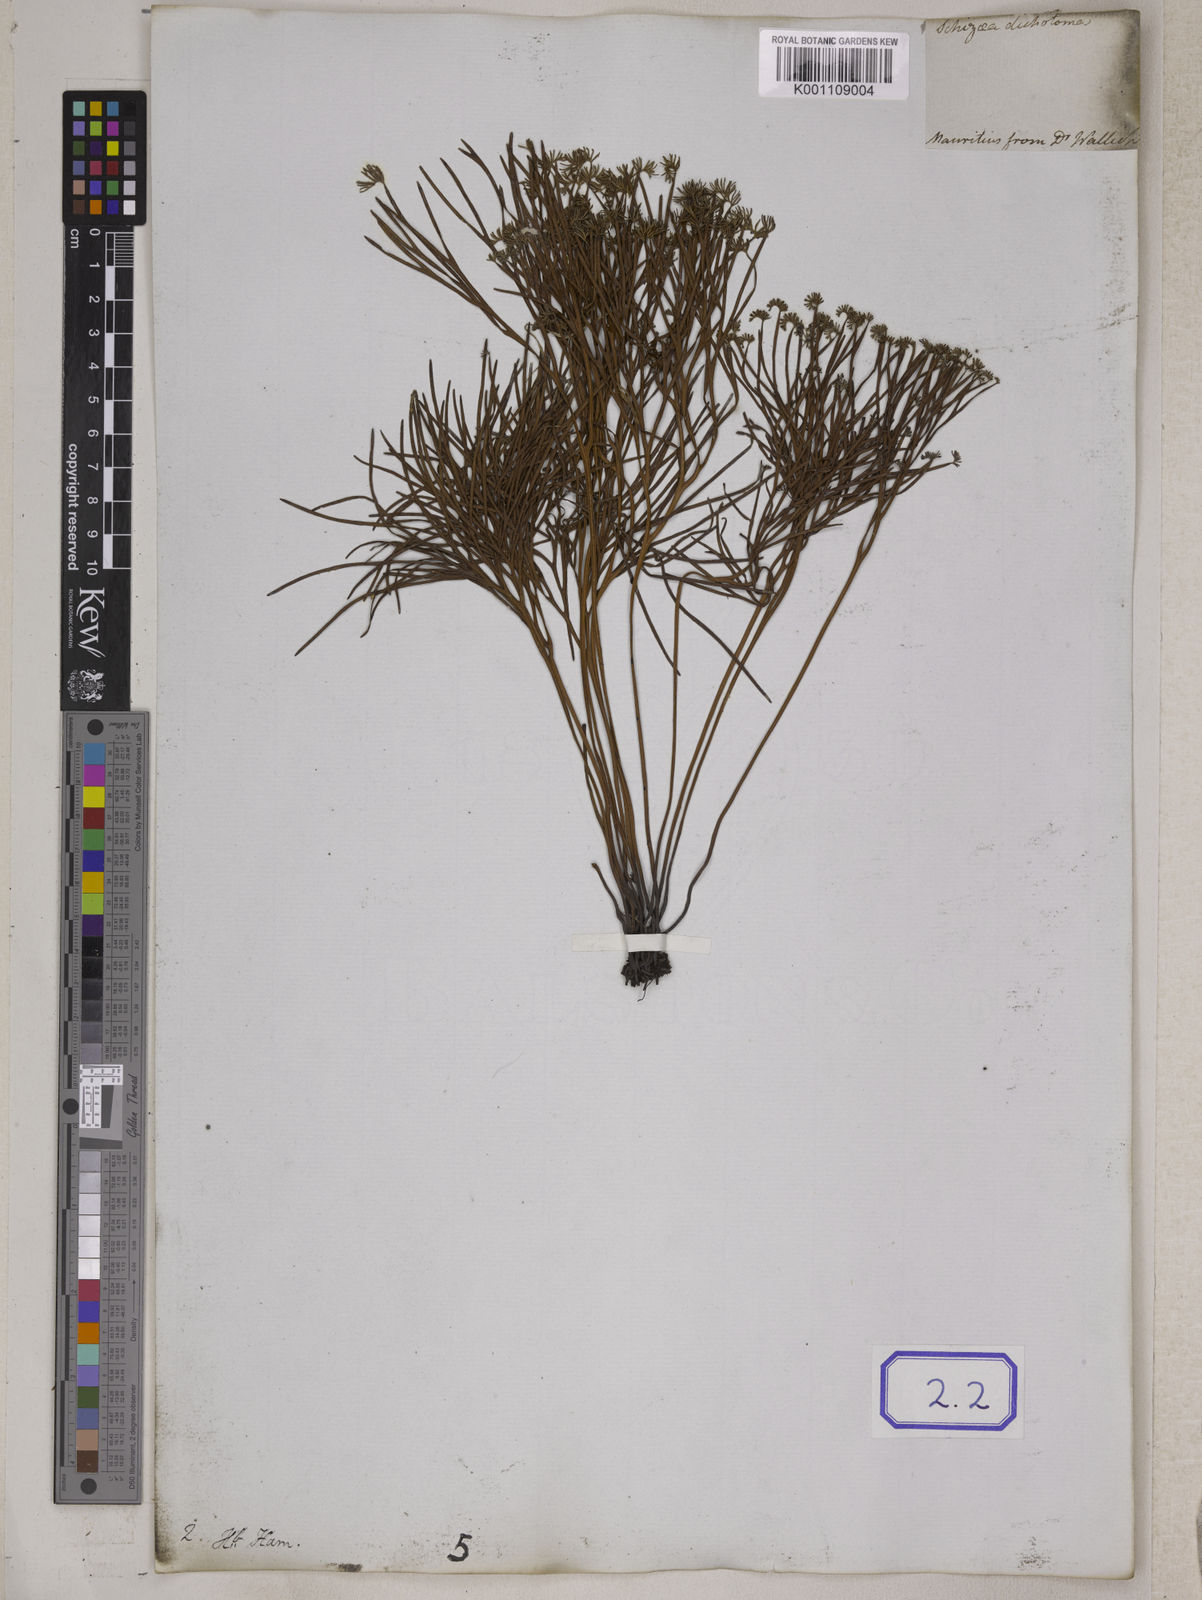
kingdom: Plantae
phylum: Tracheophyta
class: Polypodiopsida
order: Schizaeales
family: Schizaeaceae
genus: Schizaea
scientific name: Schizaea
